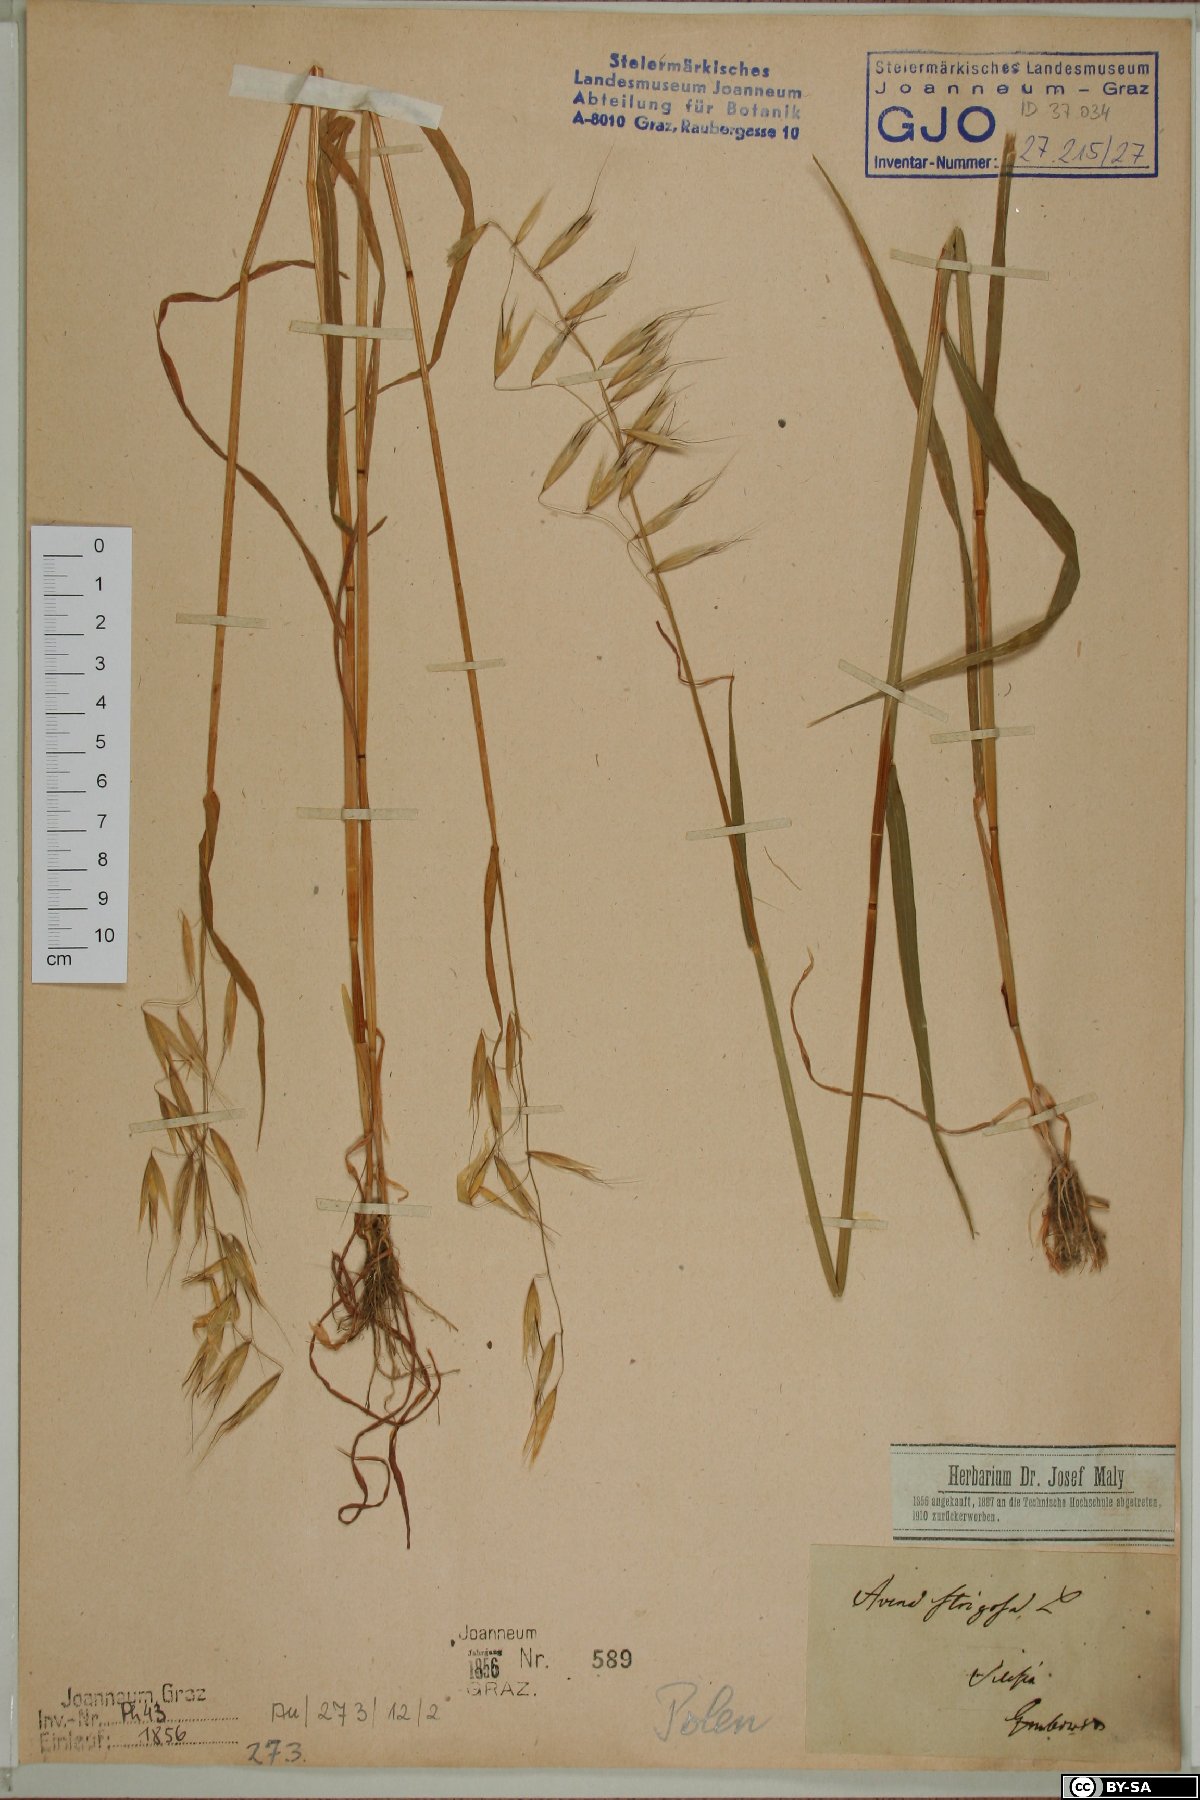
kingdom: Plantae
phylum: Tracheophyta
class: Liliopsida
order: Poales
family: Poaceae
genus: Avena
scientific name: Avena strigosa
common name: Bristle oat
